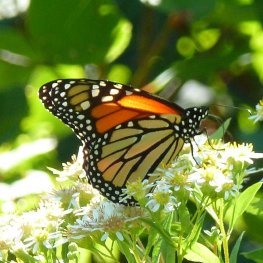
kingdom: Animalia
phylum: Arthropoda
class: Insecta
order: Lepidoptera
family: Nymphalidae
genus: Danaus
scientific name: Danaus plexippus
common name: Monarch
